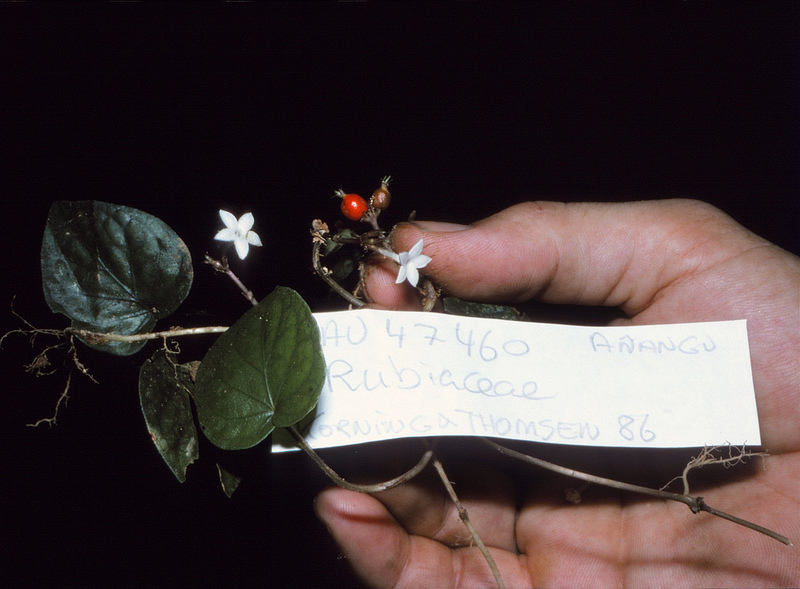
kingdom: Plantae
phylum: Tracheophyta
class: Magnoliopsida
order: Gentianales
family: Rubiaceae
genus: Geophila
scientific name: Geophila repens
